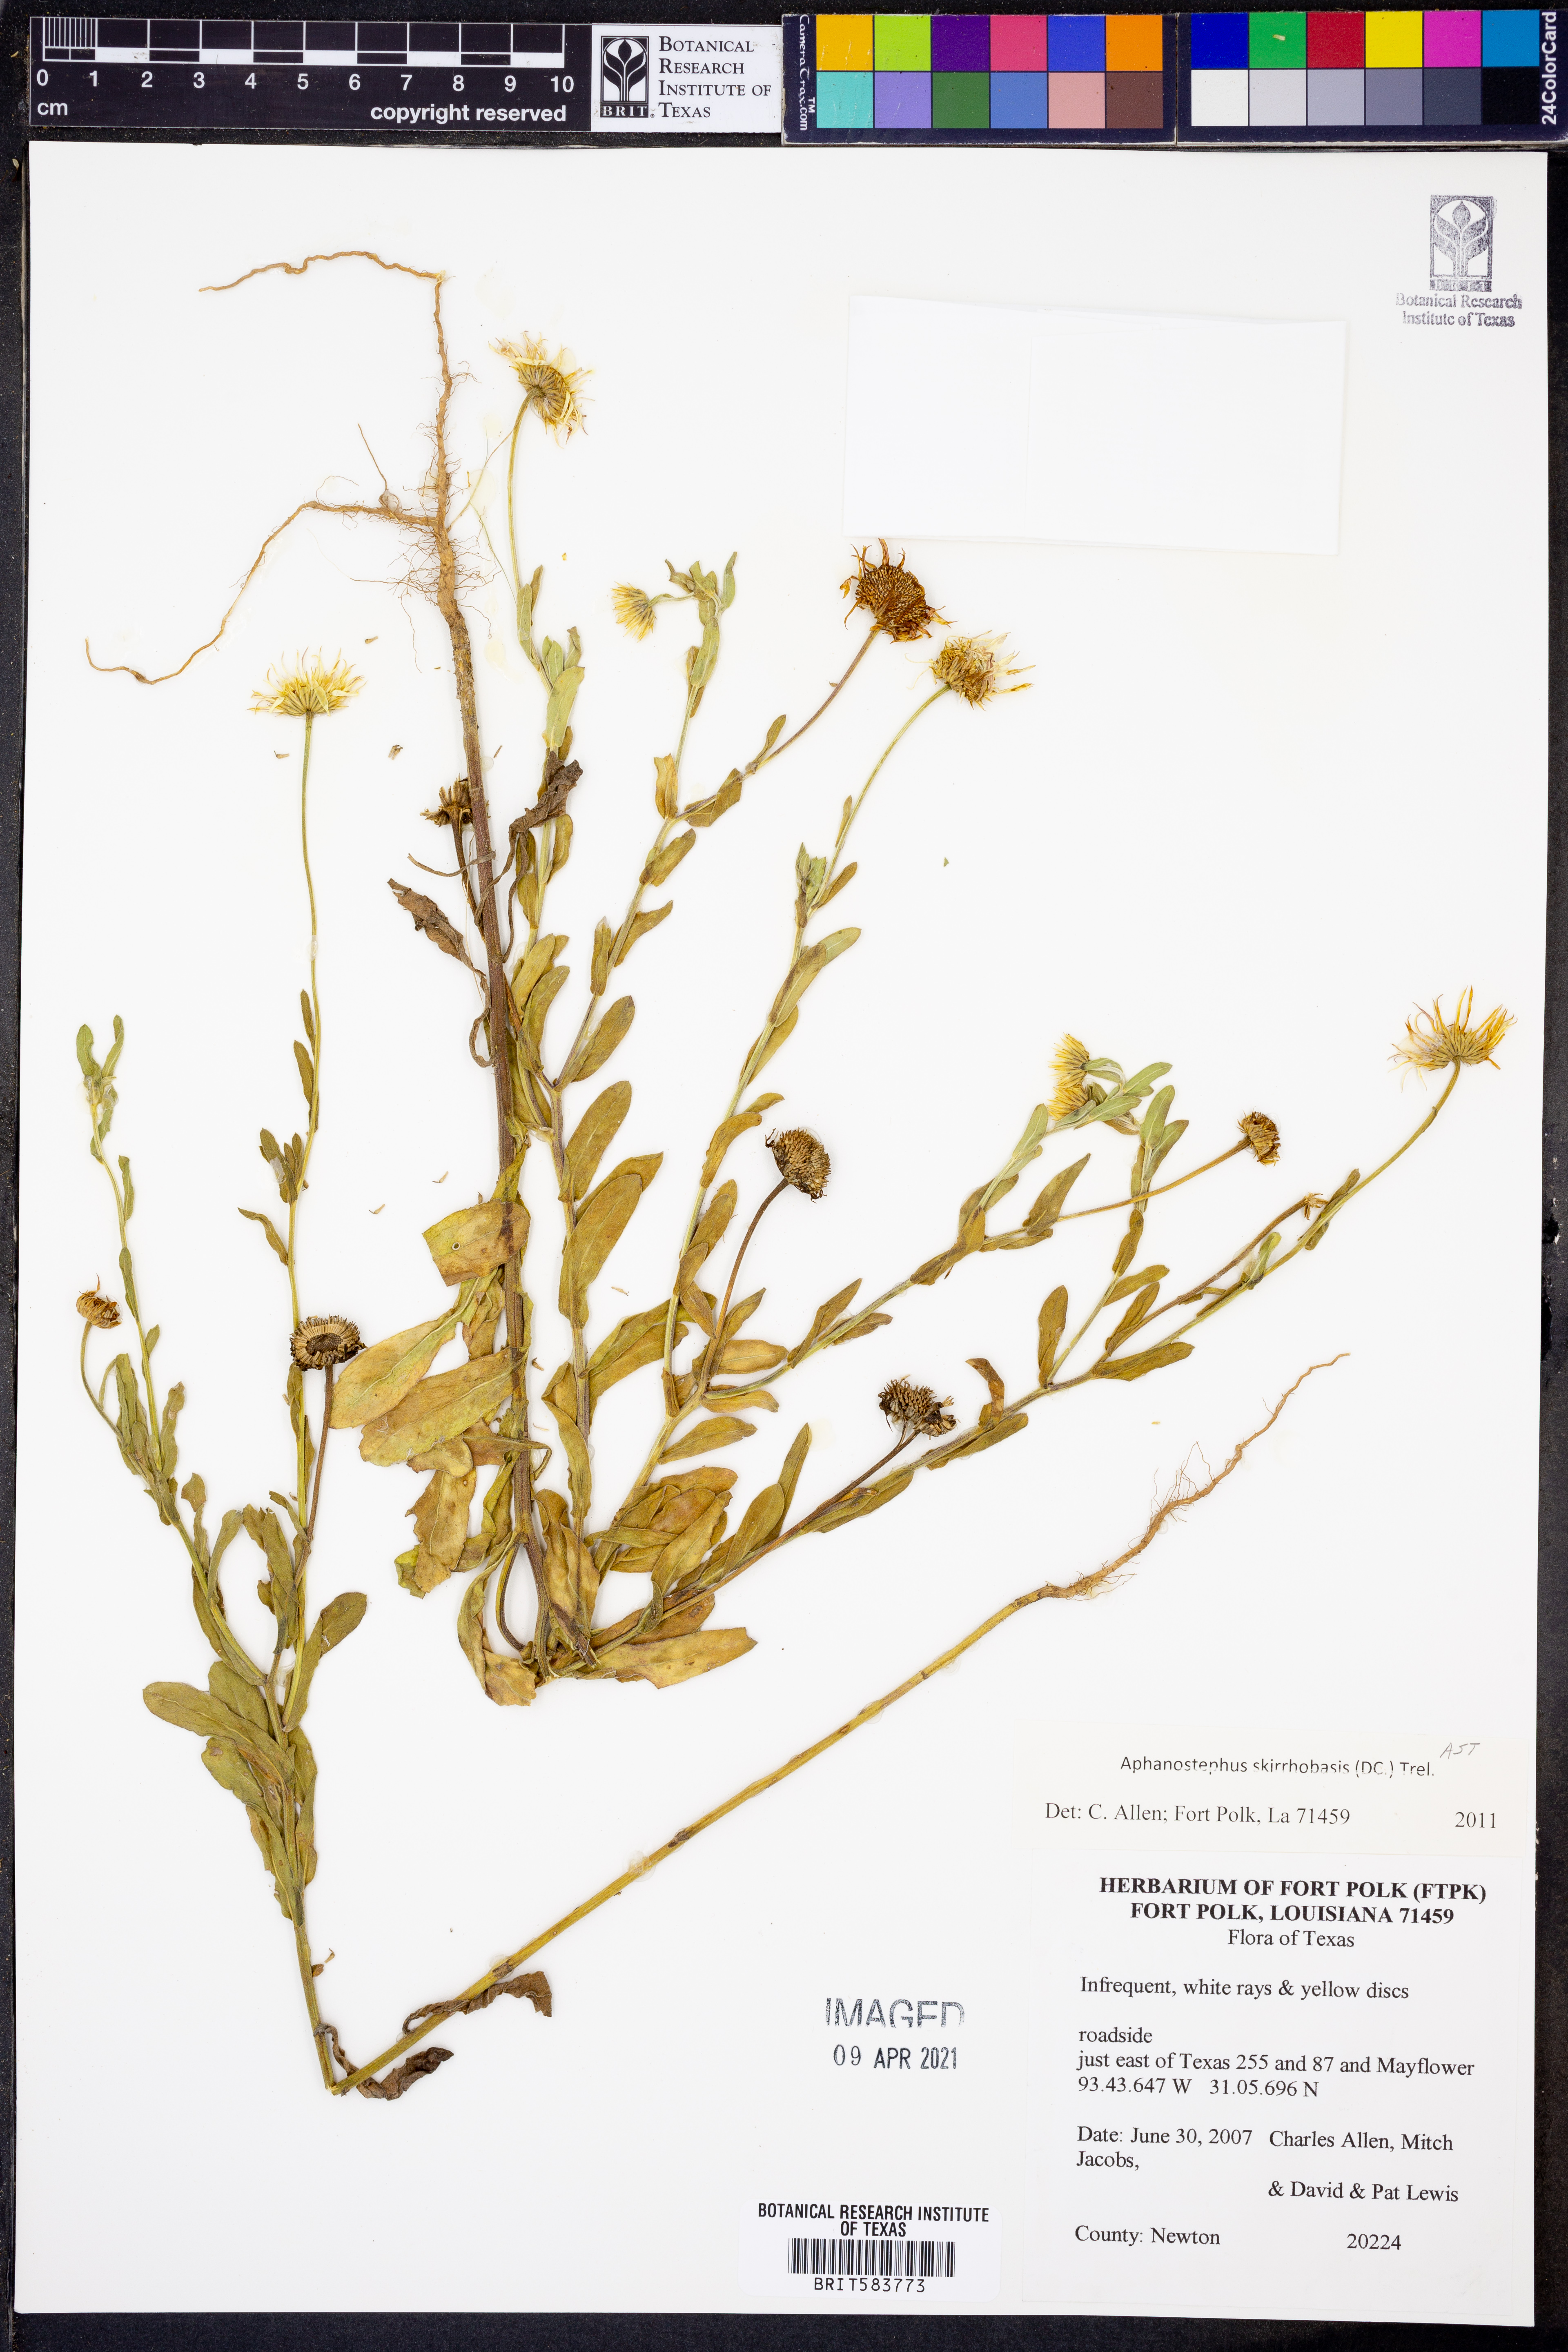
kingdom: Plantae
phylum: Tracheophyta
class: Magnoliopsida
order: Asterales
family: Asteraceae
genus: Aphanostephus
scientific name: Aphanostephus skirrhobasis
